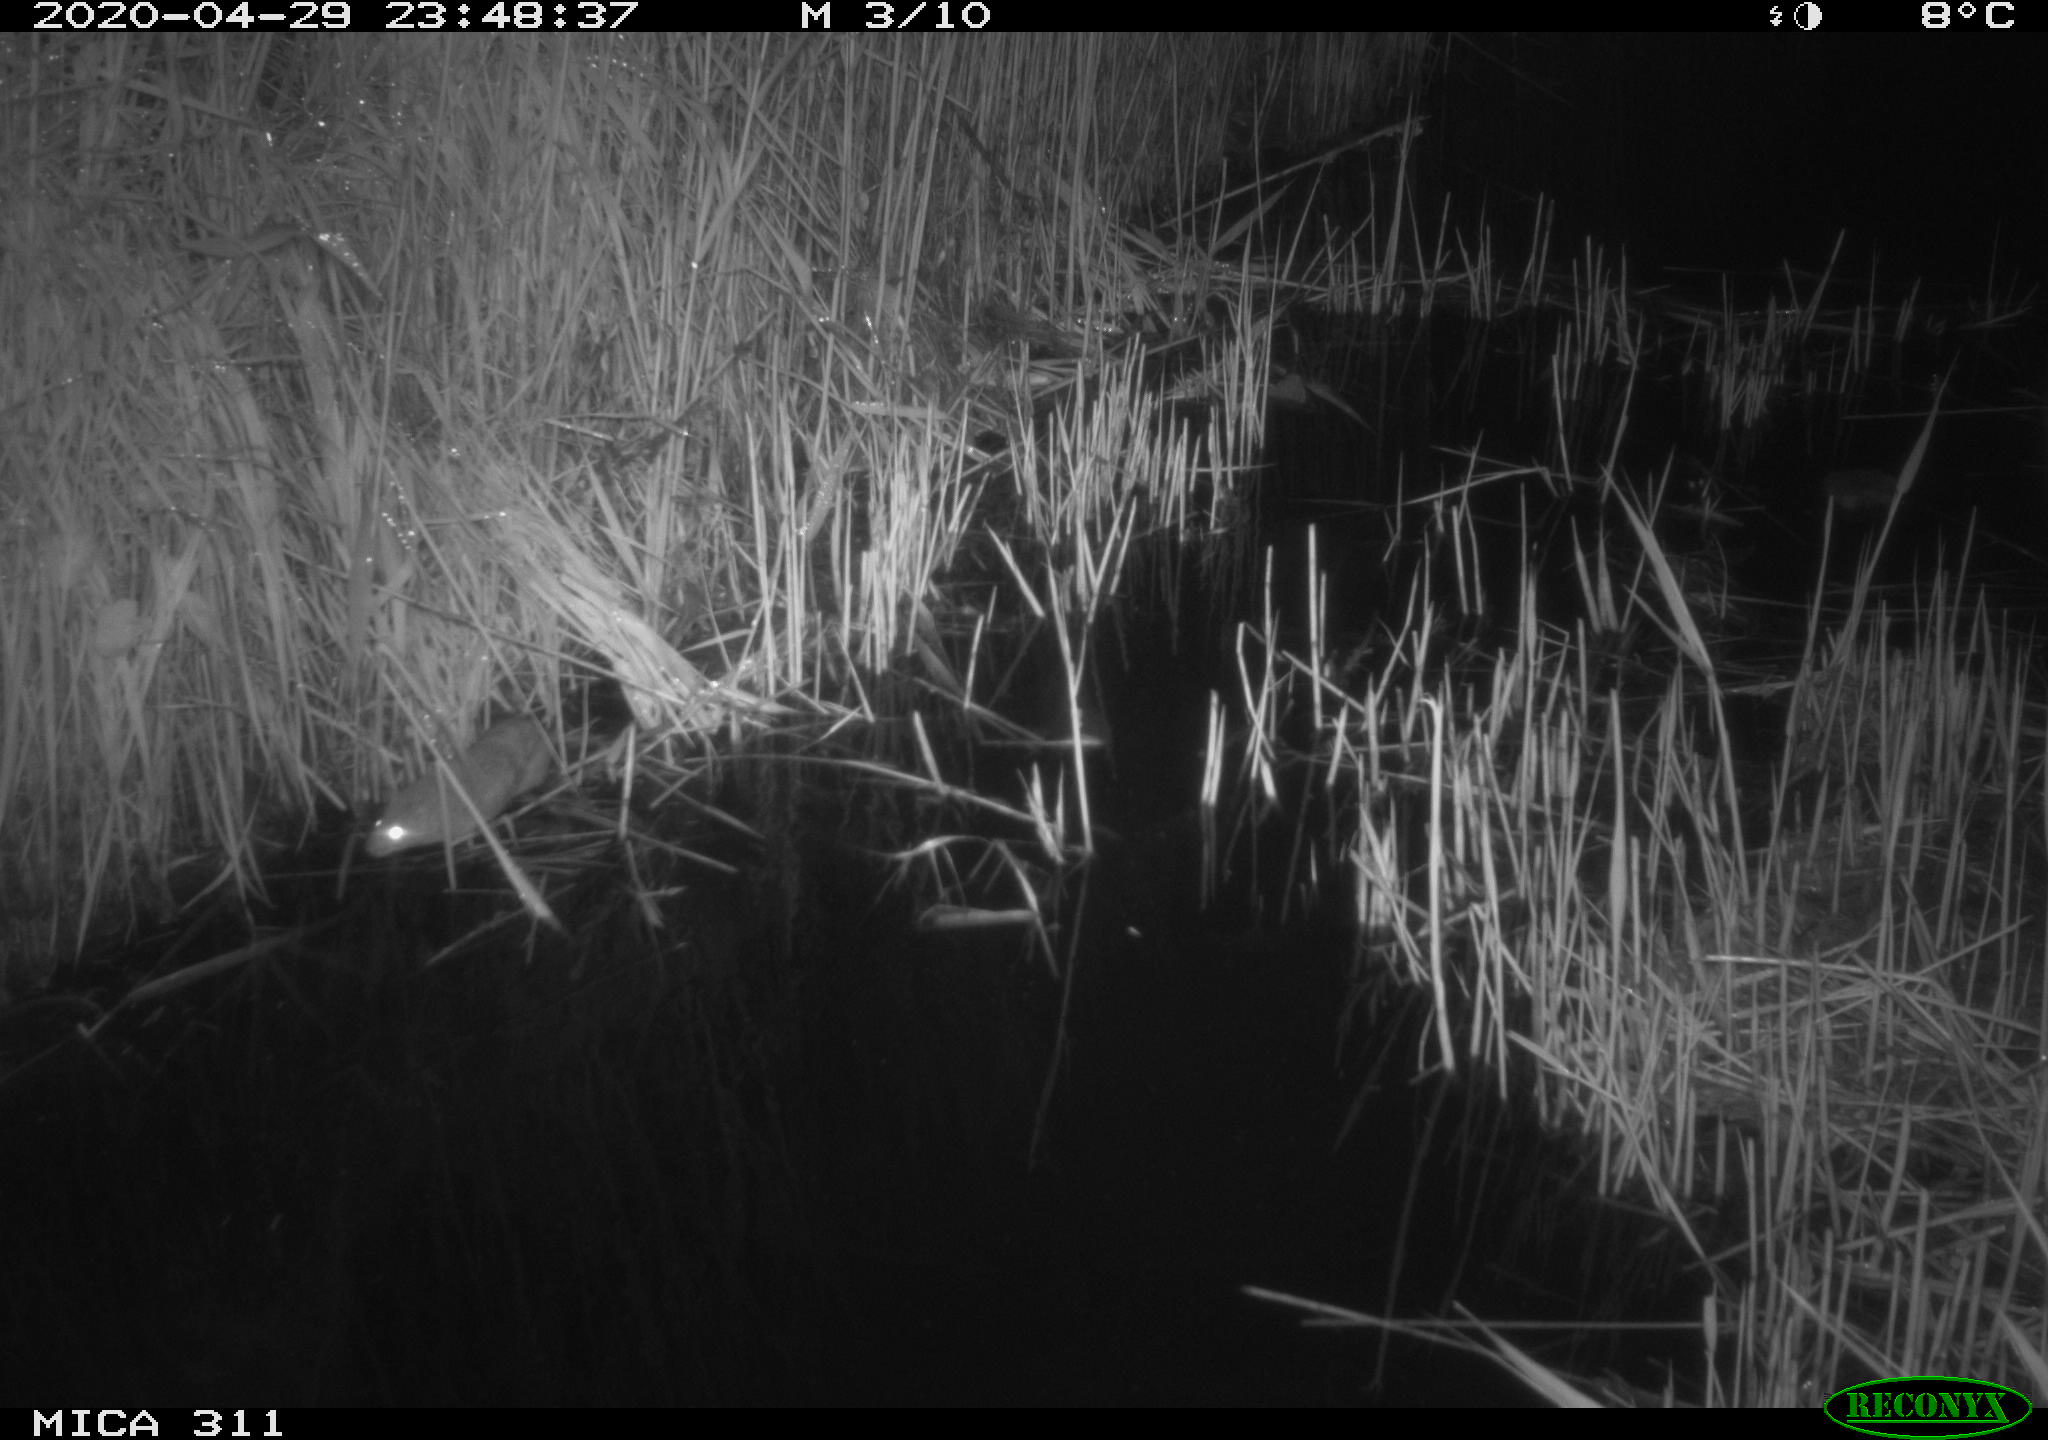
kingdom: Animalia
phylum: Chordata
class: Aves
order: Pelecaniformes
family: Ardeidae
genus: Ardea
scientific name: Ardea cinerea
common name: Grey heron
